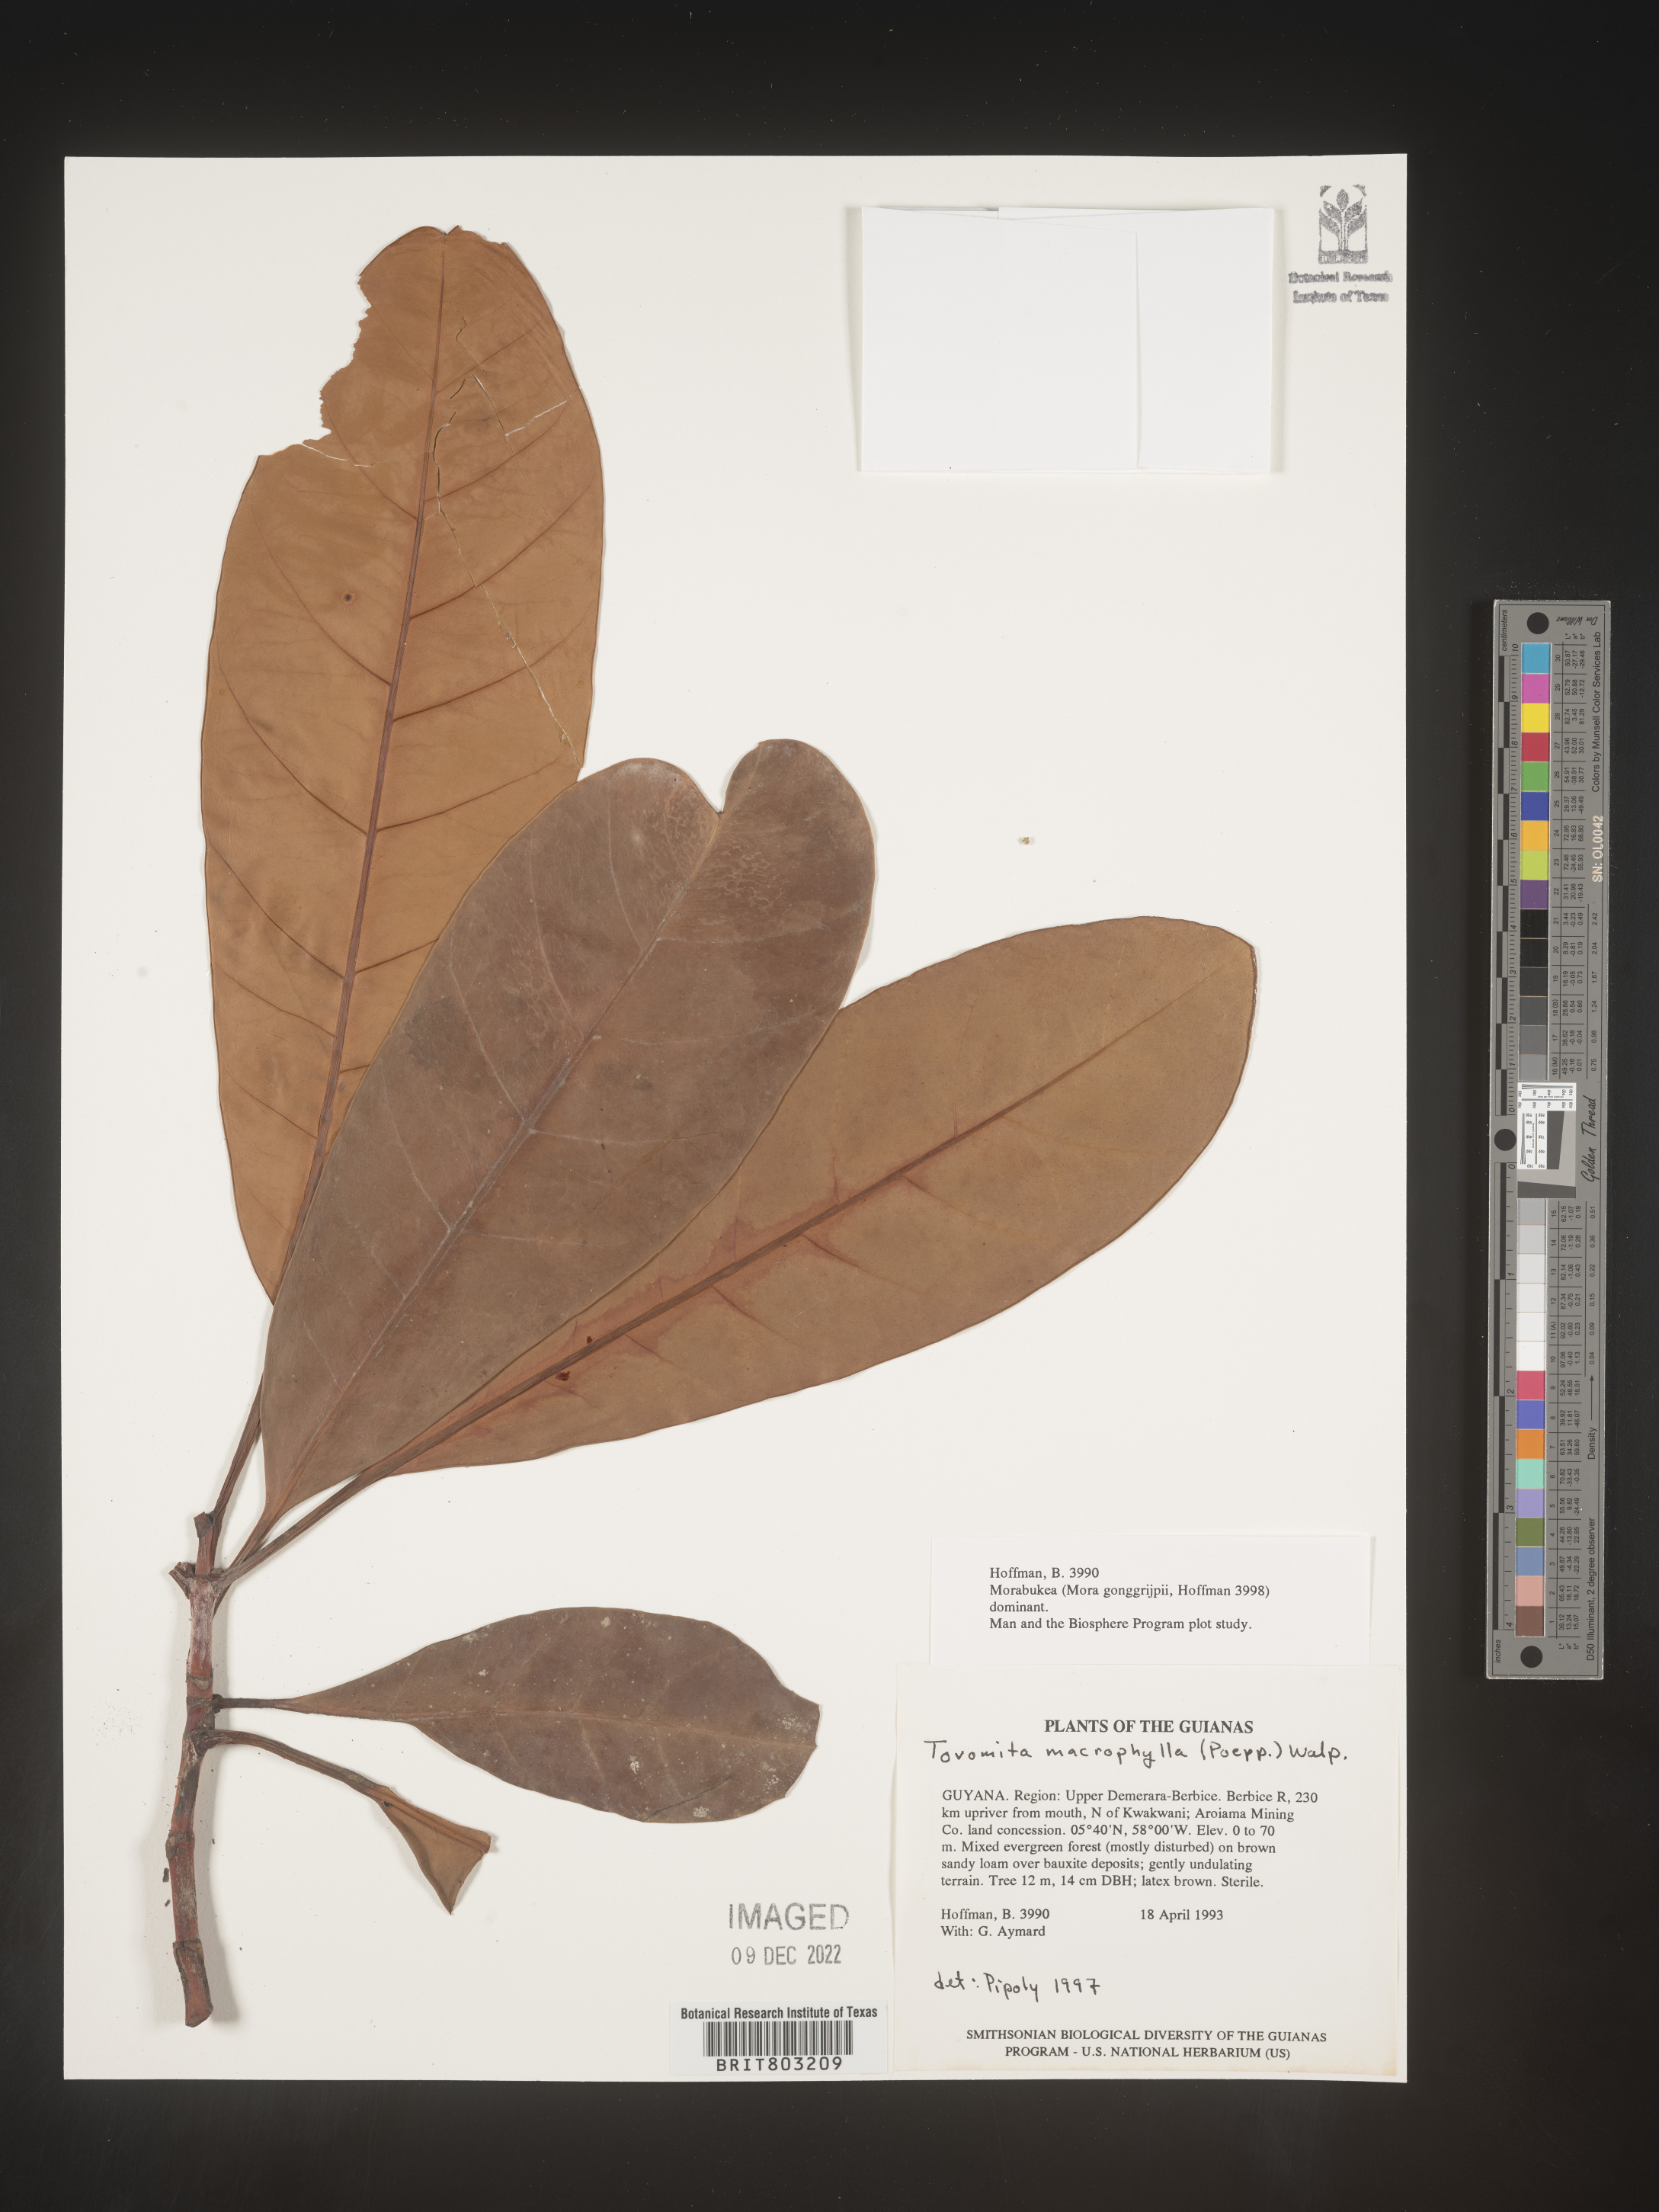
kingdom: Plantae
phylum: Tracheophyta
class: Magnoliopsida
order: Malpighiales
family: Clusiaceae
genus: Tovomita
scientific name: Tovomita
